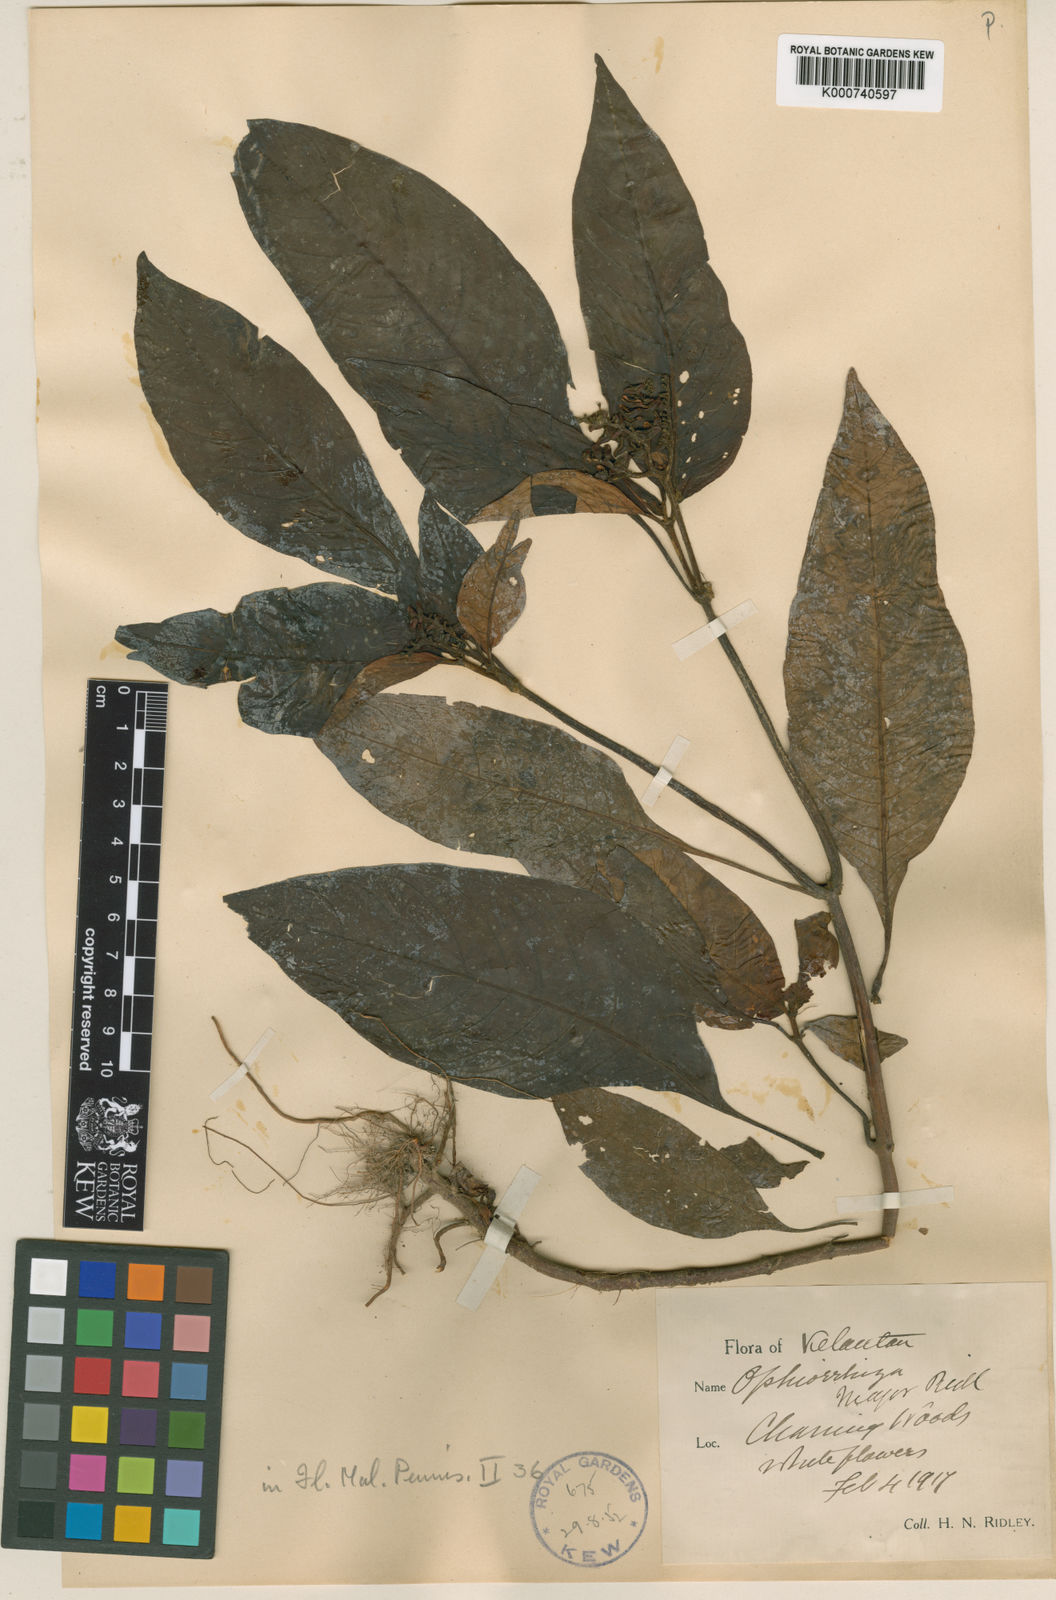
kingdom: Plantae
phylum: Tracheophyta
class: Magnoliopsida
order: Gentianales
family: Rubiaceae
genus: Ophiorrhiza
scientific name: Ophiorrhiza major
